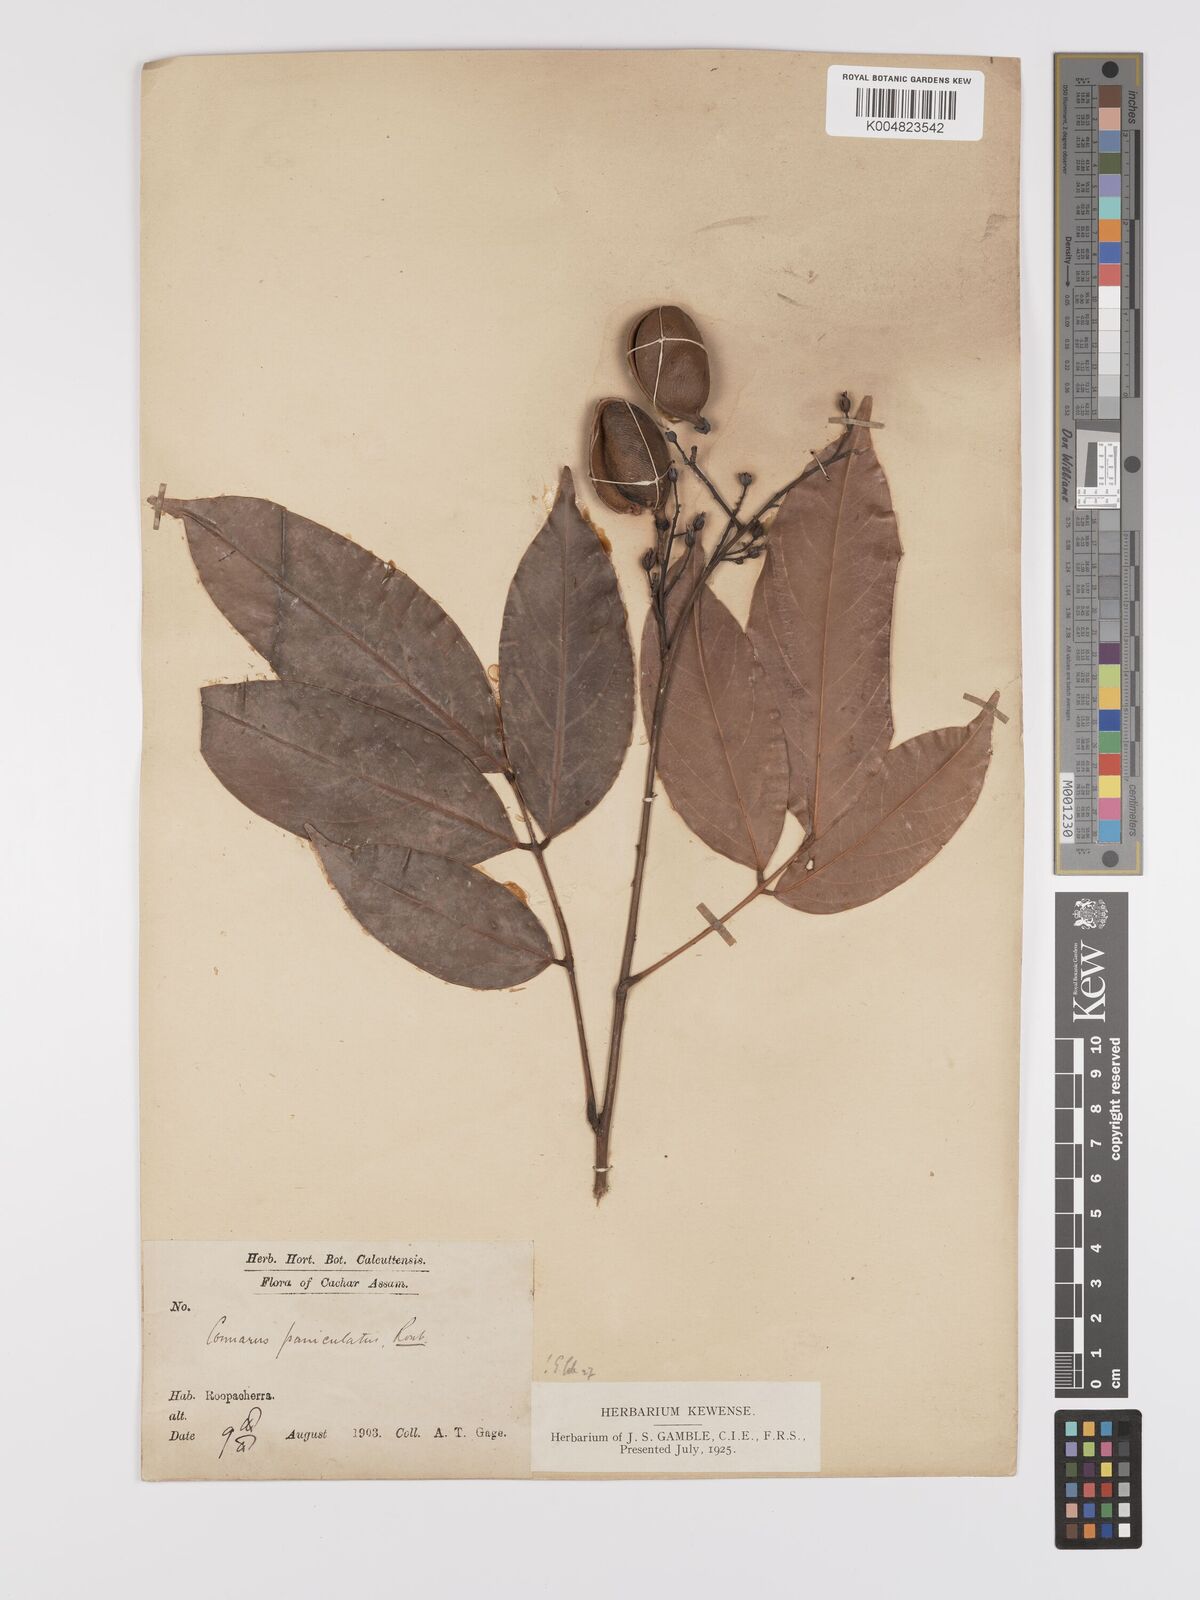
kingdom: Plantae
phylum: Tracheophyta
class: Magnoliopsida
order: Oxalidales
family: Connaraceae
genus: Connarus
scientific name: Connarus paniculatus
